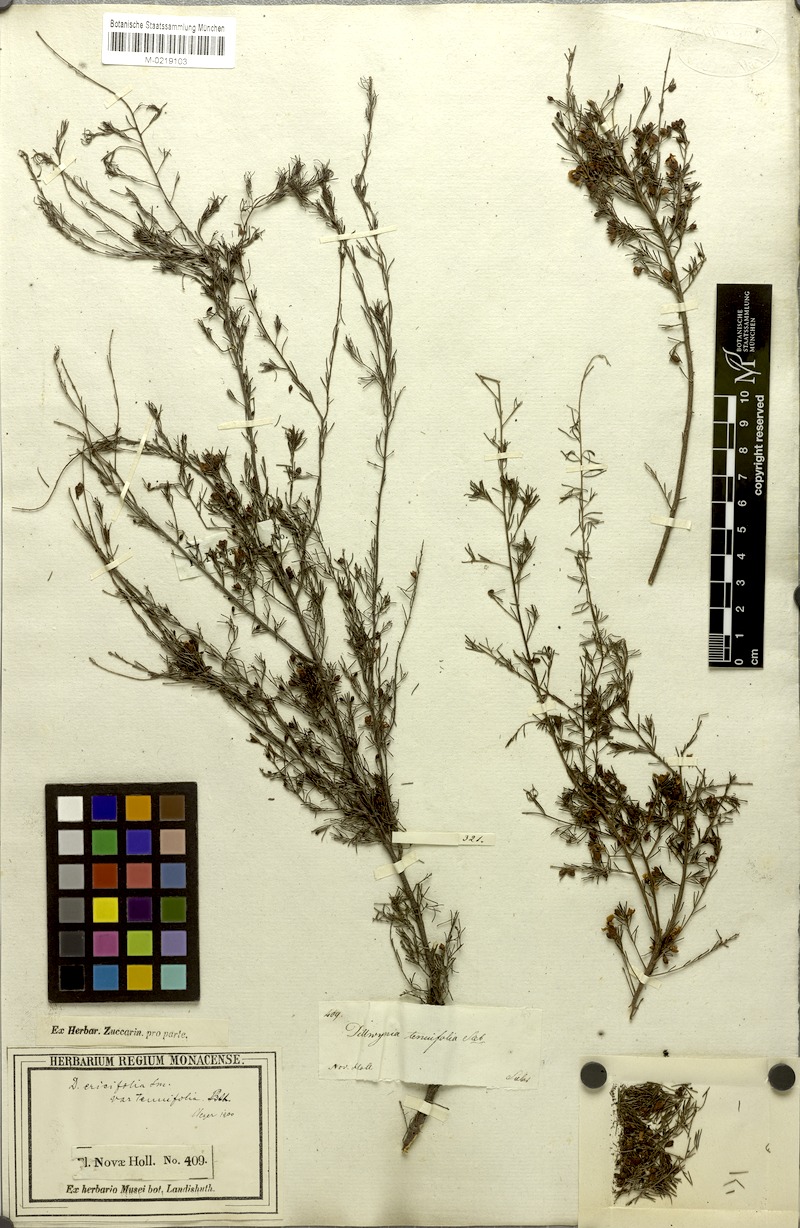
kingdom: Plantae
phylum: Tracheophyta
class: Magnoliopsida
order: Fabales
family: Fabaceae
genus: Dillwynia
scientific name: Dillwynia tenuifolia
